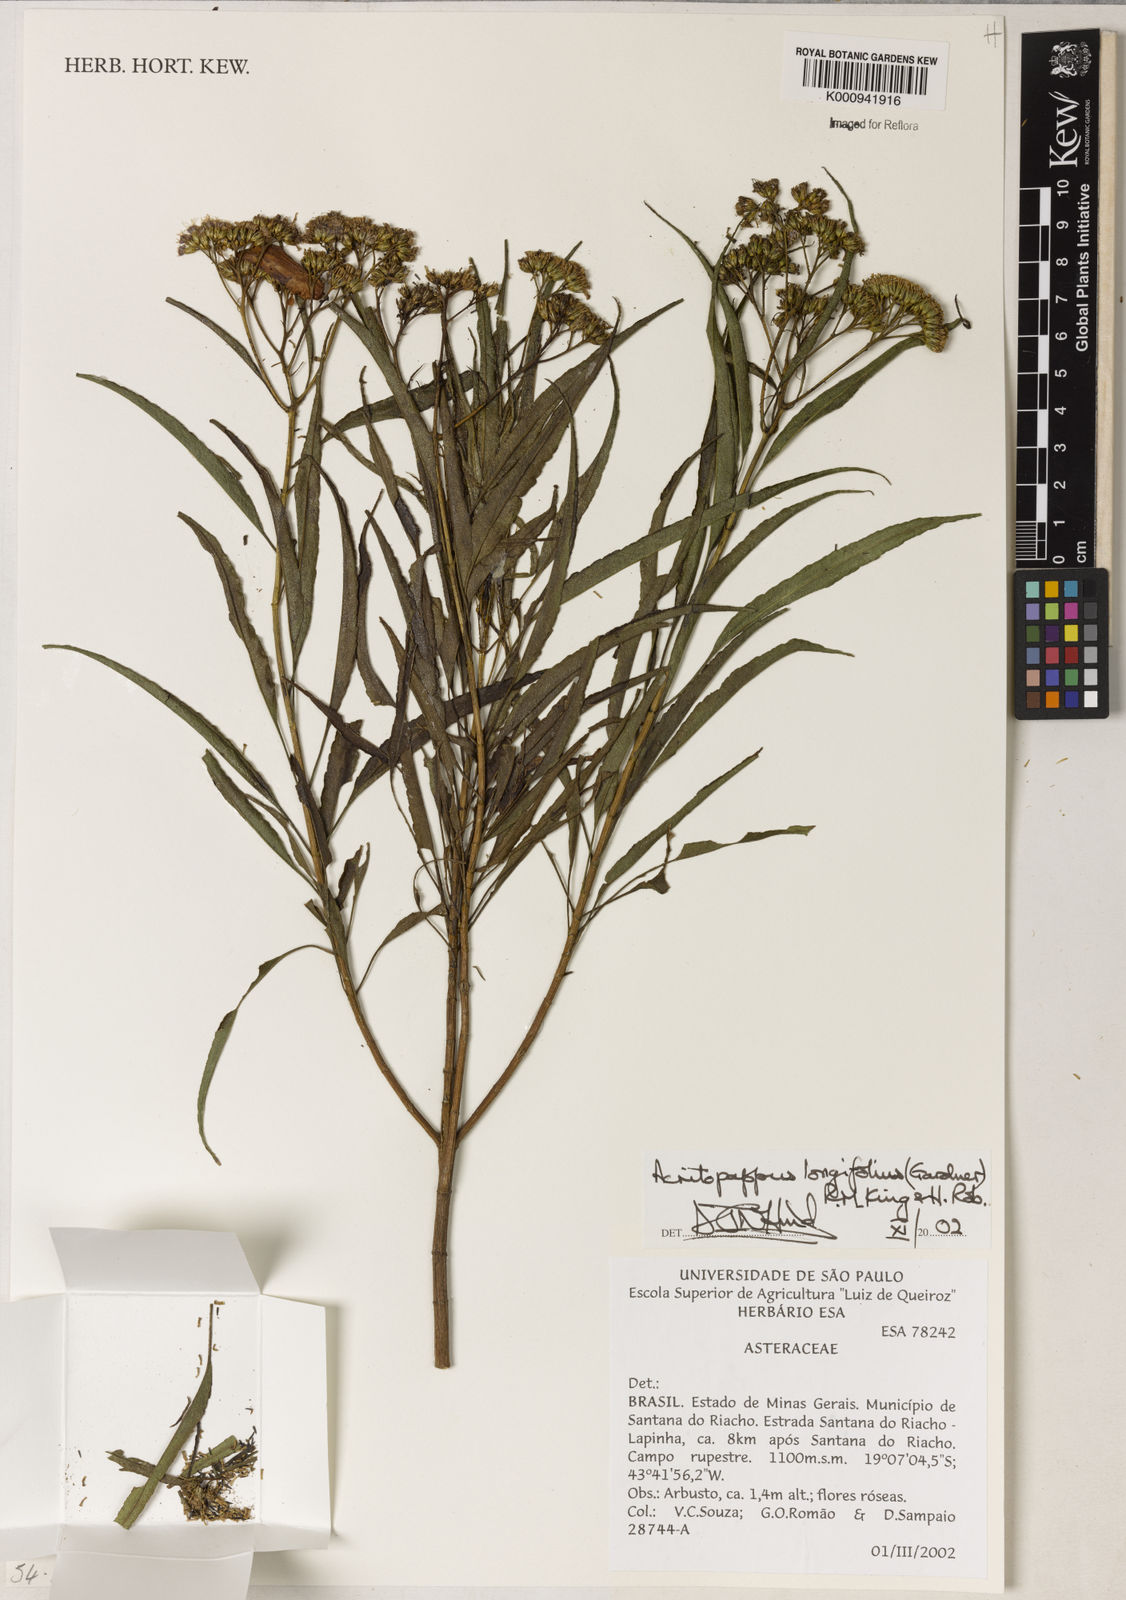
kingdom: Plantae
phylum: Tracheophyta
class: Magnoliopsida
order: Asterales
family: Asteraceae
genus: Acritopappus
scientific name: Acritopappus longifolius
